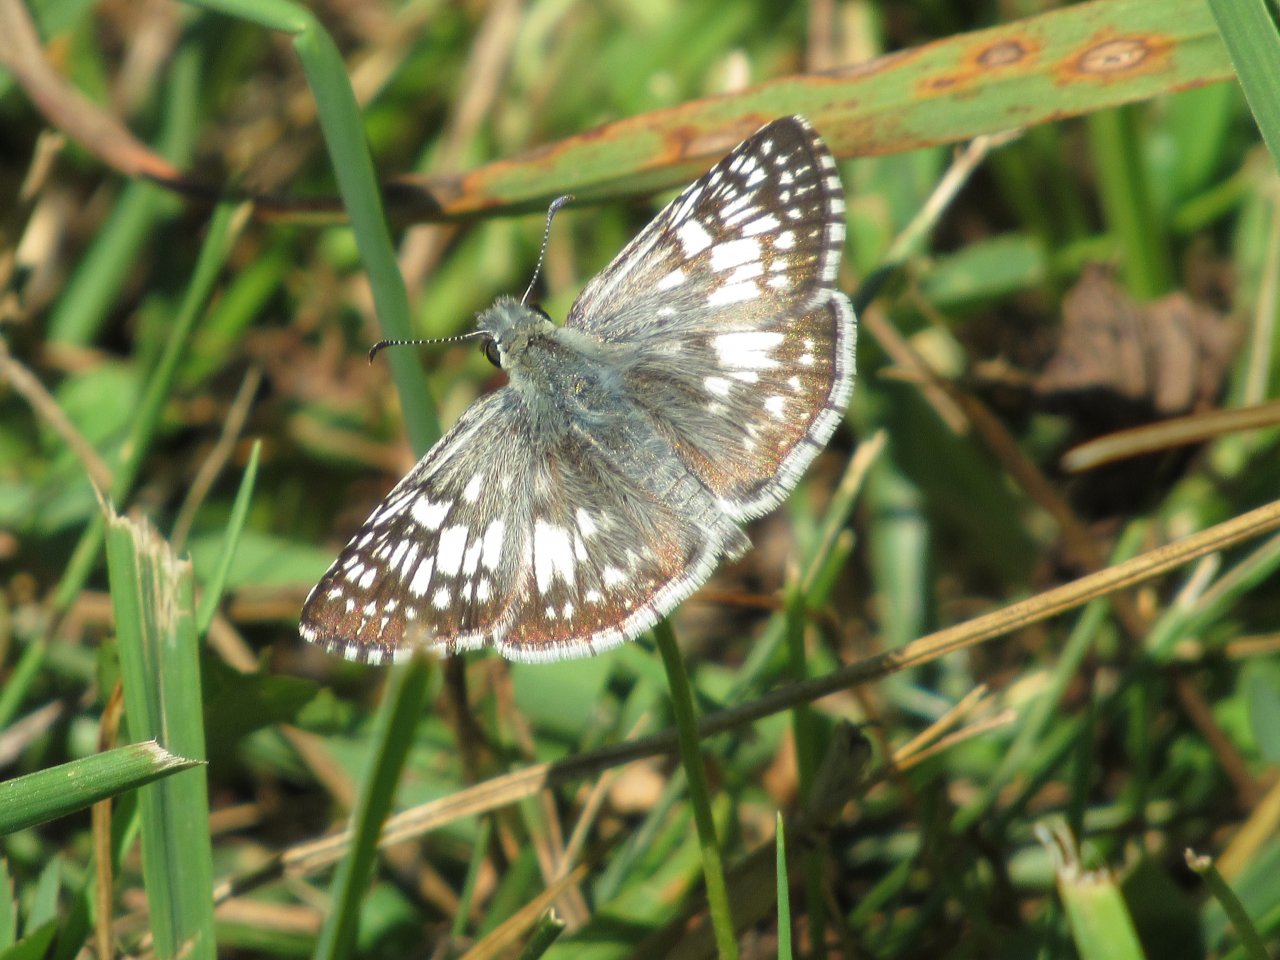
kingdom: Animalia
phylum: Arthropoda
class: Insecta
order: Lepidoptera
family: Hesperiidae
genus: Pyrgus
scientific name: Pyrgus communis
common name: Common Checkered-Skipper
